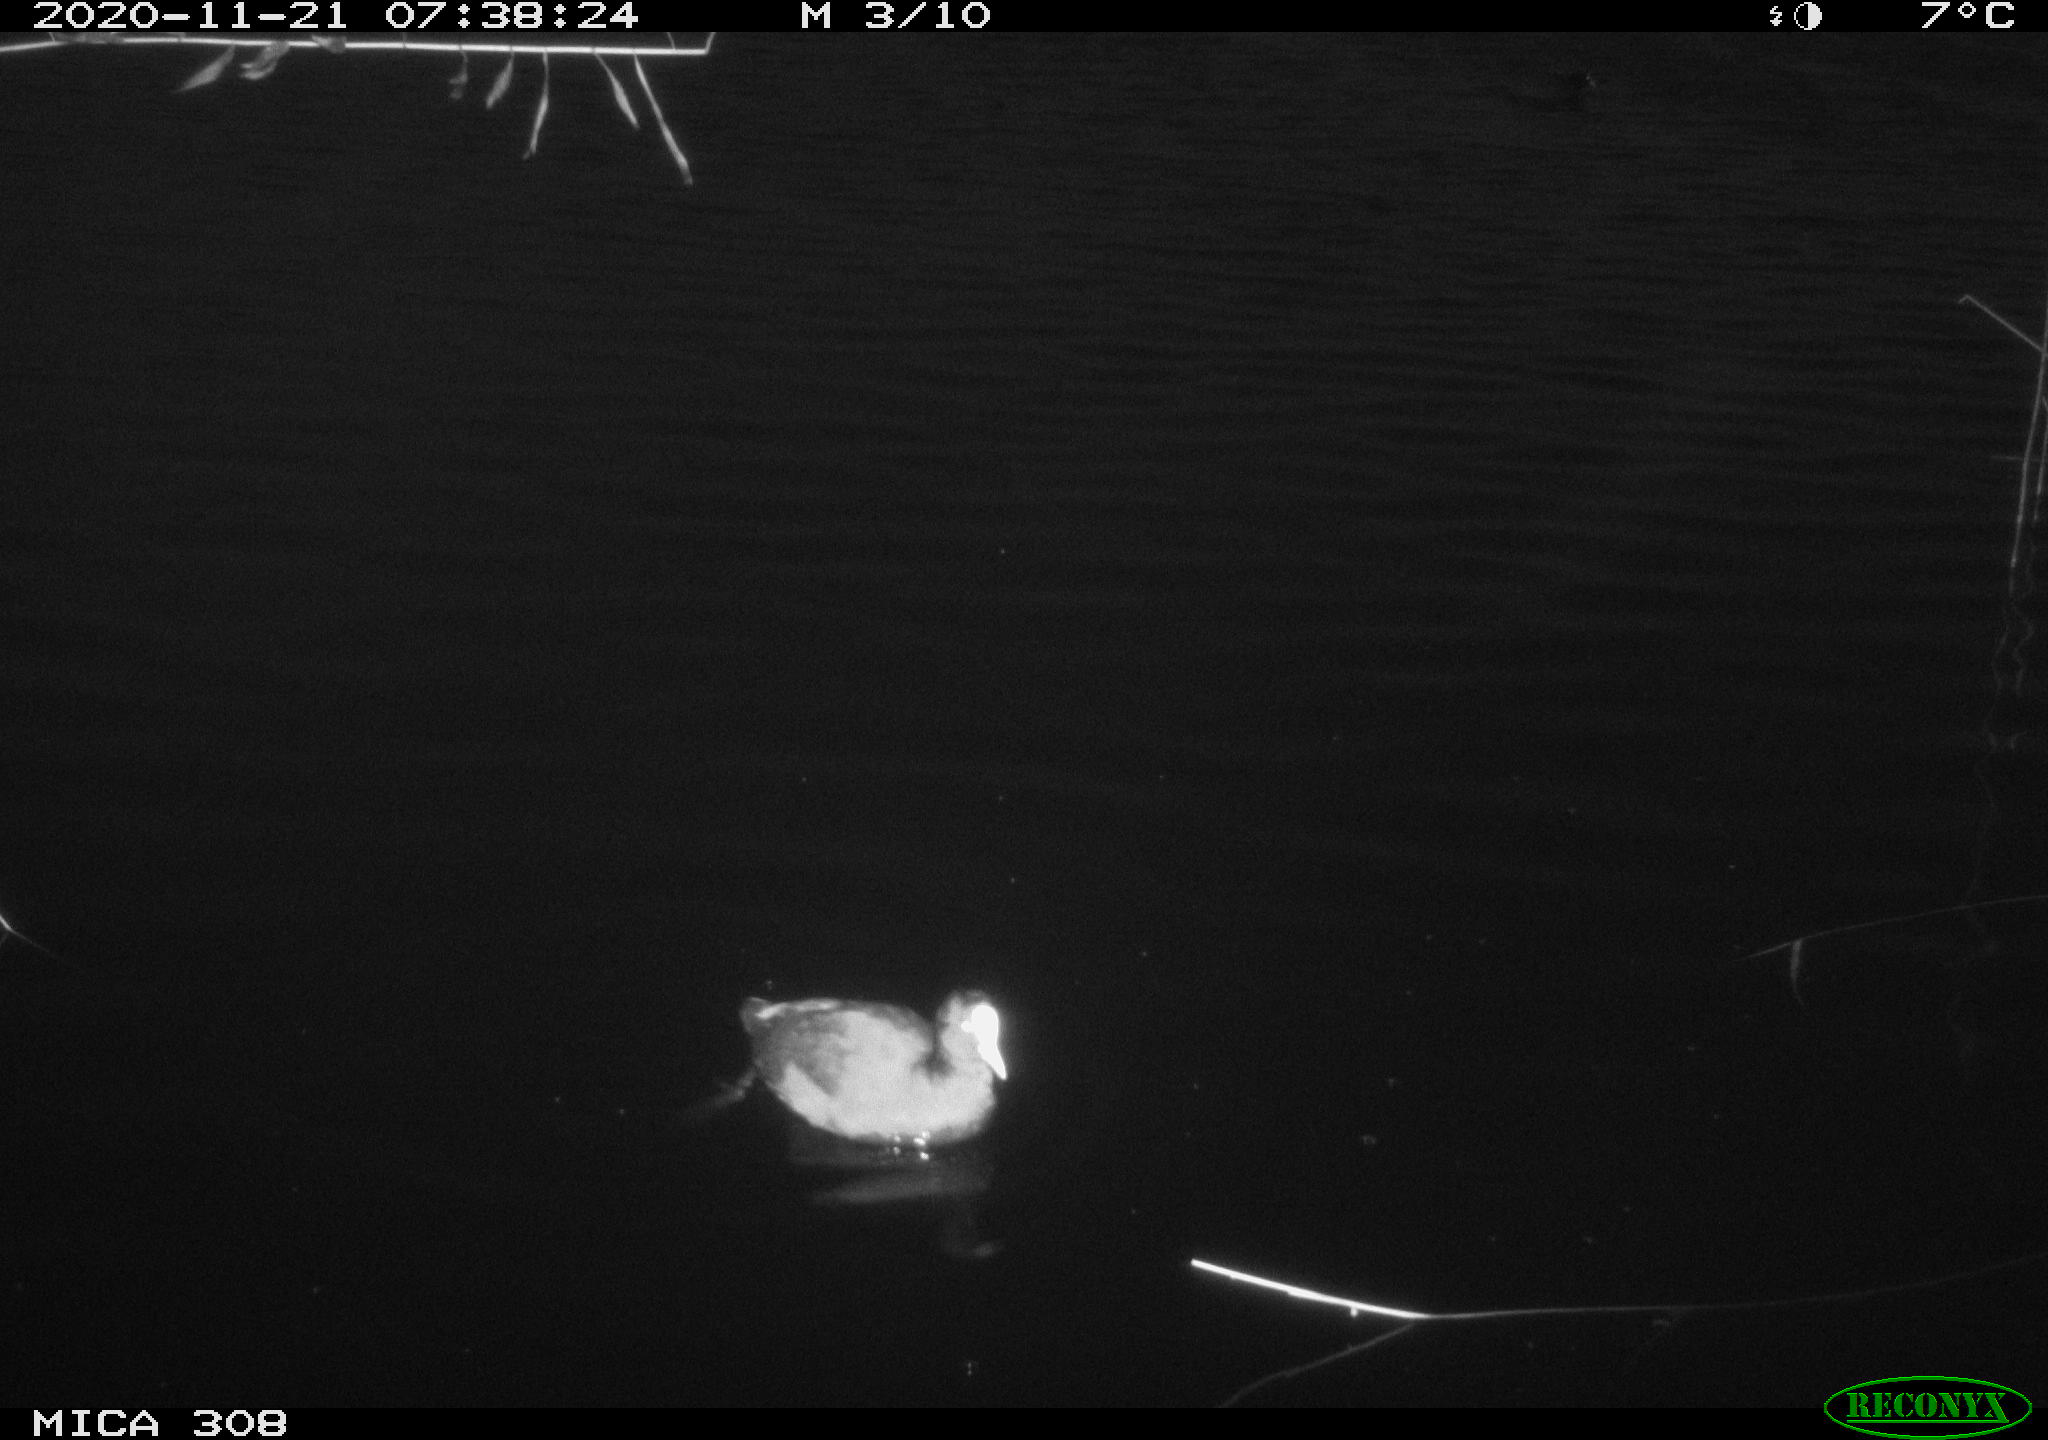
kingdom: Animalia
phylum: Chordata
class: Aves
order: Anseriformes
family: Anatidae
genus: Anas
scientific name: Anas platyrhynchos
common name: Mallard
